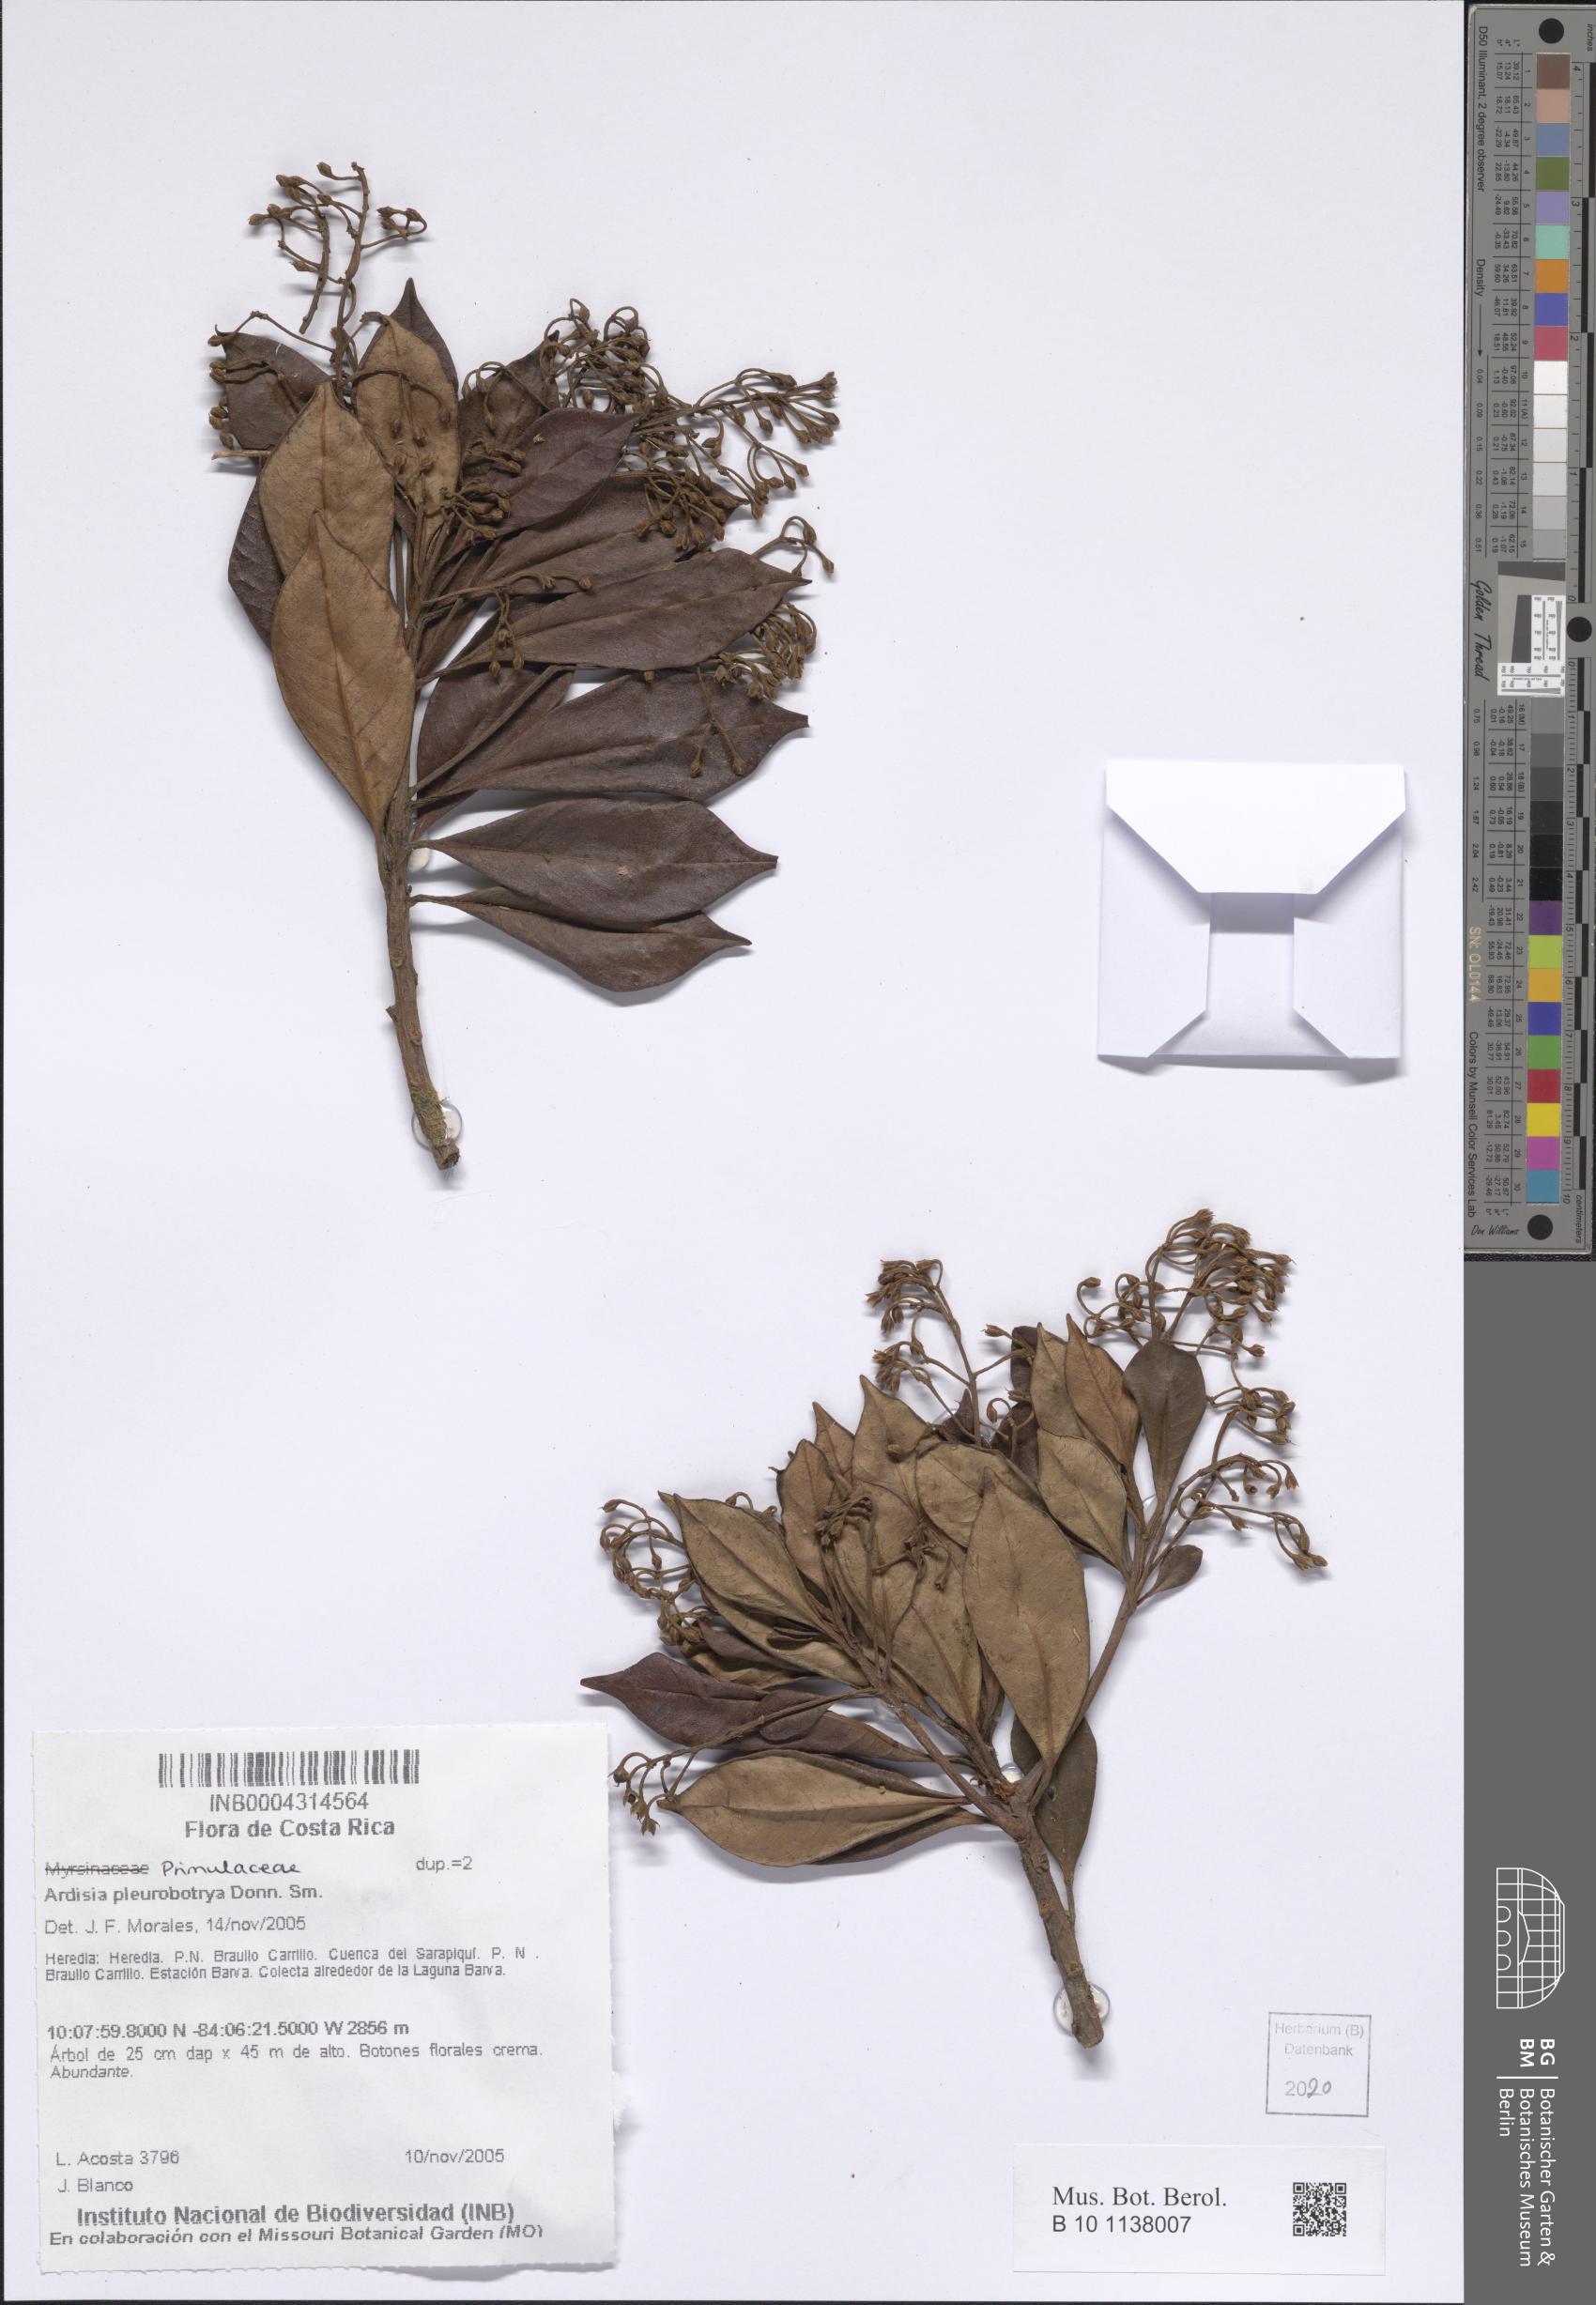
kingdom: Plantae
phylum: Tracheophyta
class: Magnoliopsida
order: Ericales
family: Primulaceae
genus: Ardisia
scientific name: Ardisia pleurobotrya
